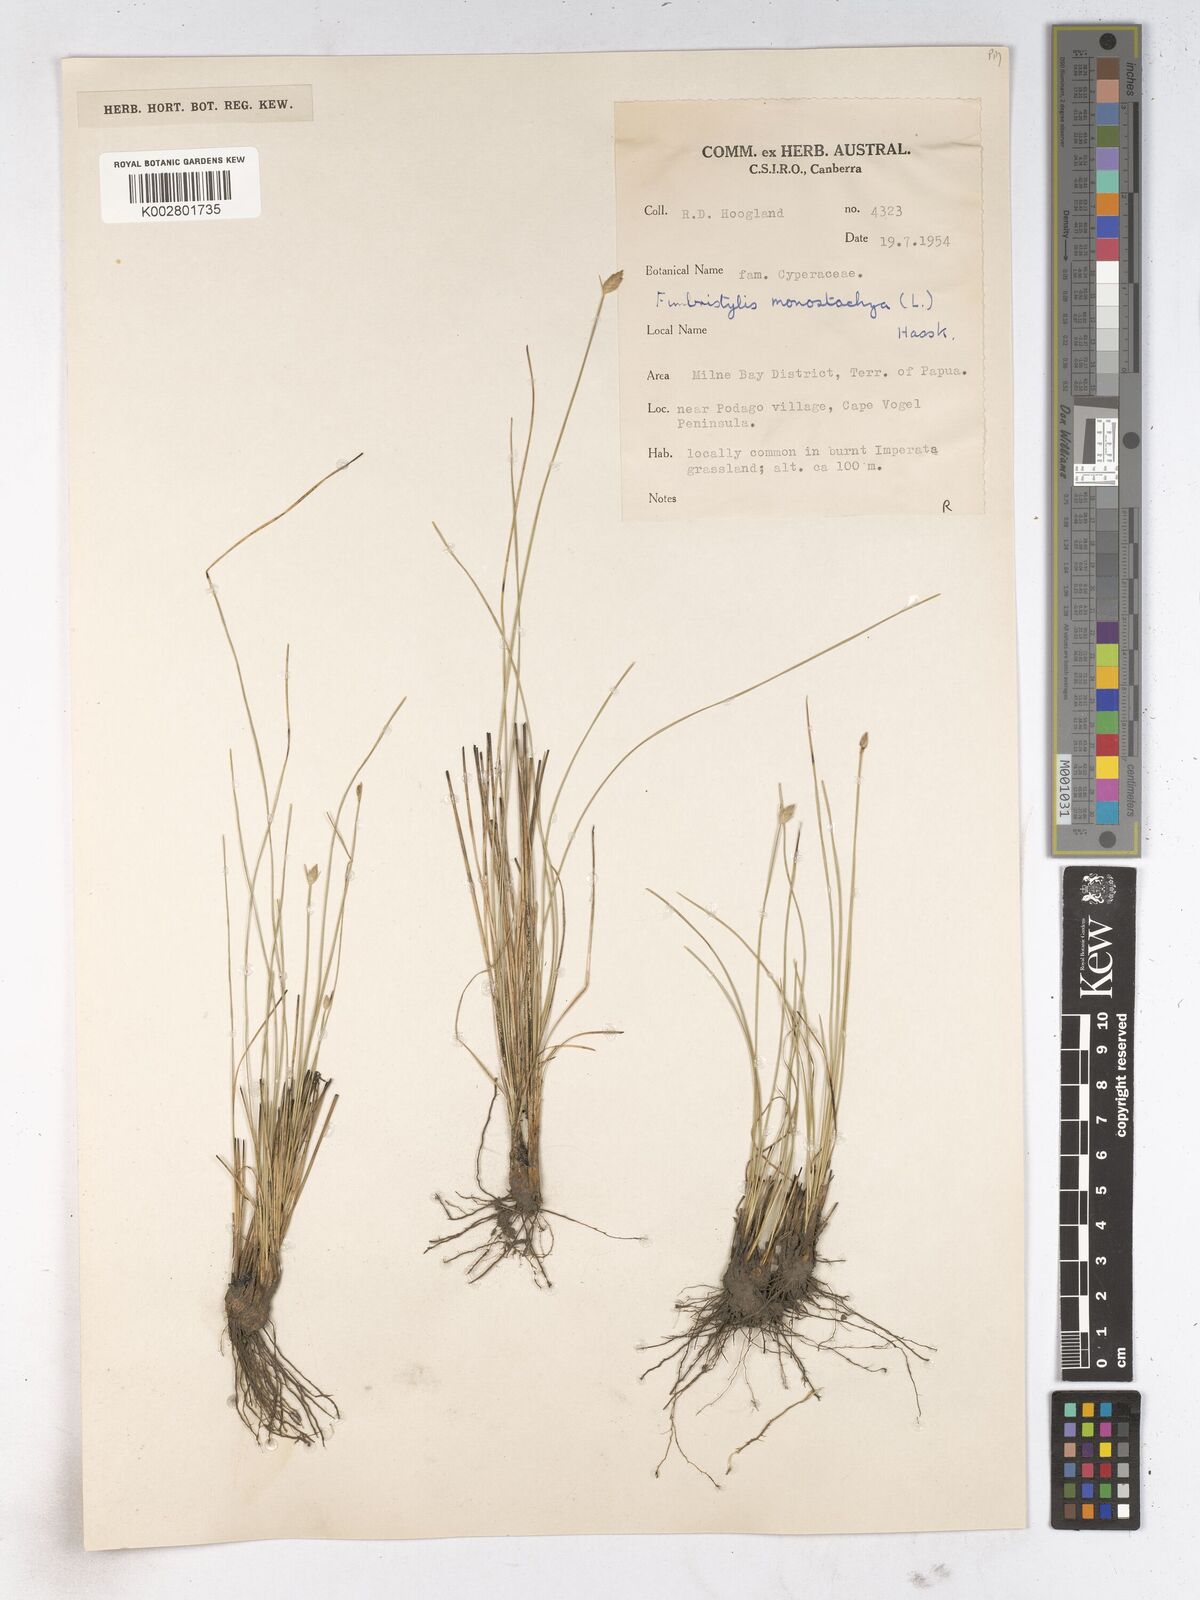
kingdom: Plantae
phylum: Tracheophyta
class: Liliopsida
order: Poales
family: Cyperaceae
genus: Abildgaardia
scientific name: Abildgaardia ovata
